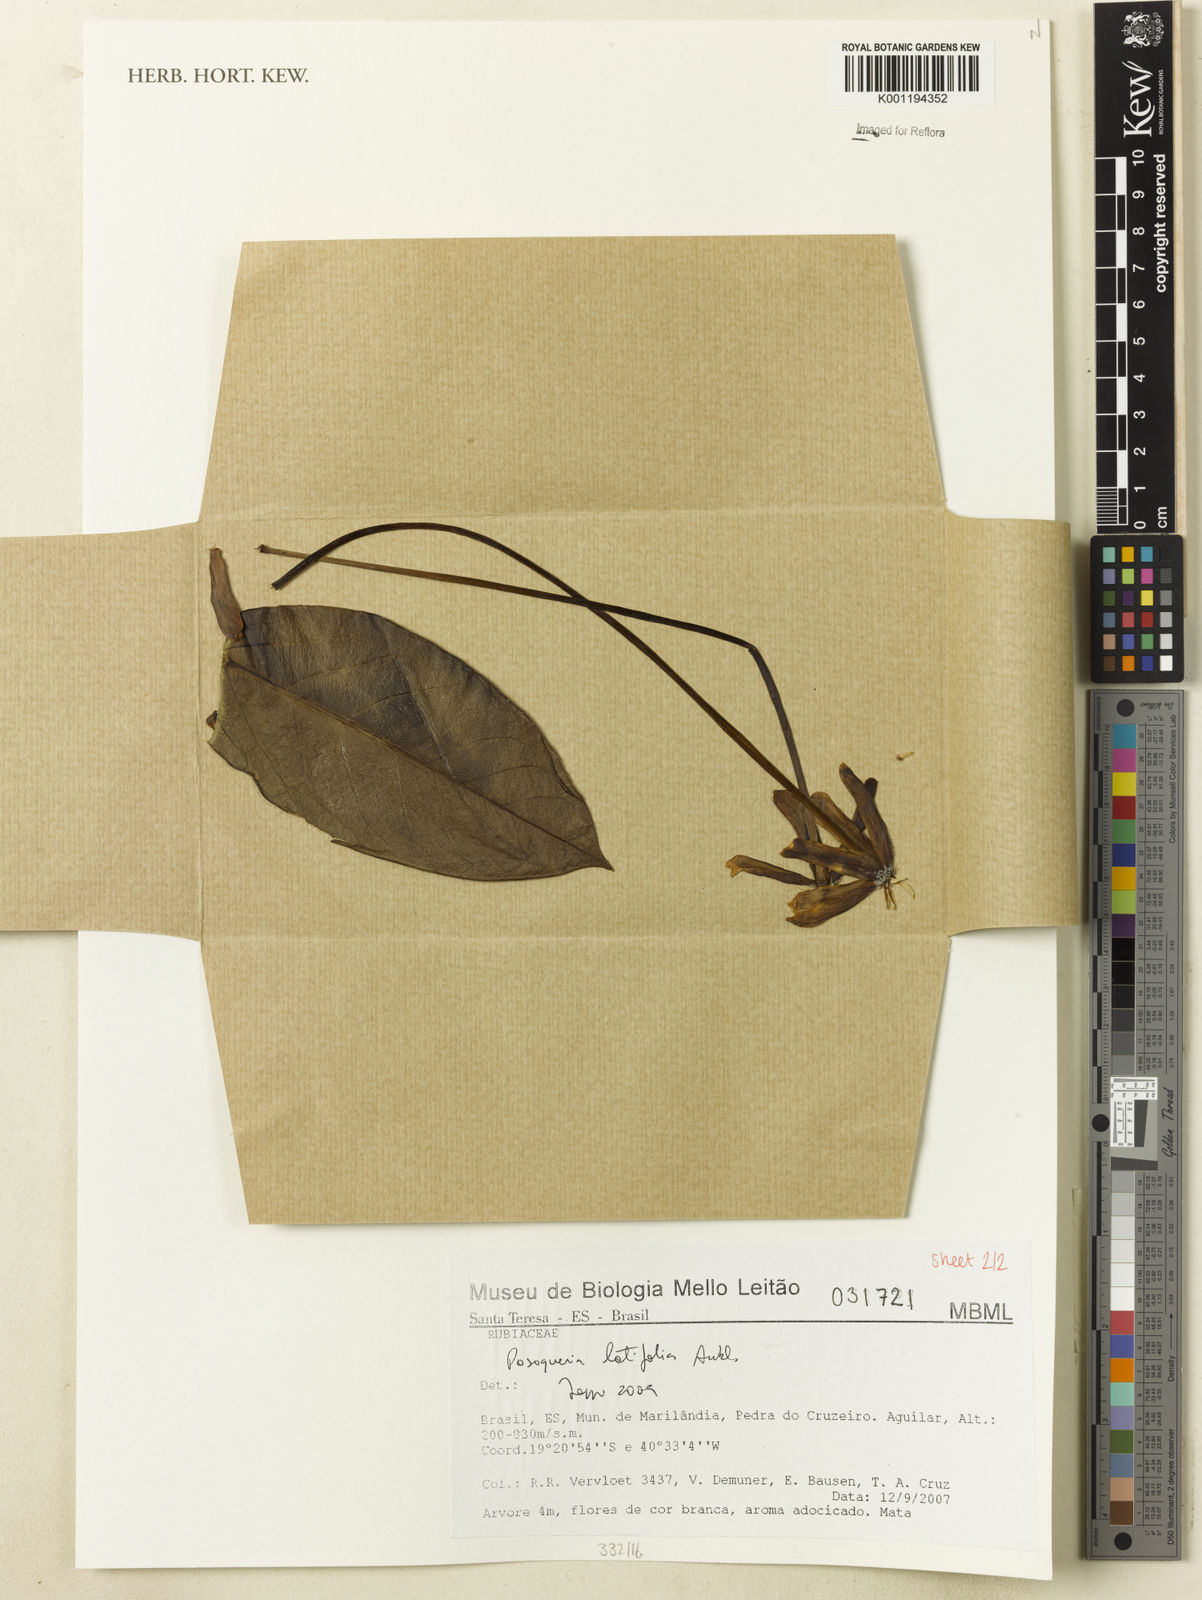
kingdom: Plantae
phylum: Tracheophyta
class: Magnoliopsida
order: Gentianales
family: Rubiaceae
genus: Posoqueria
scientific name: Posoqueria latifolia
